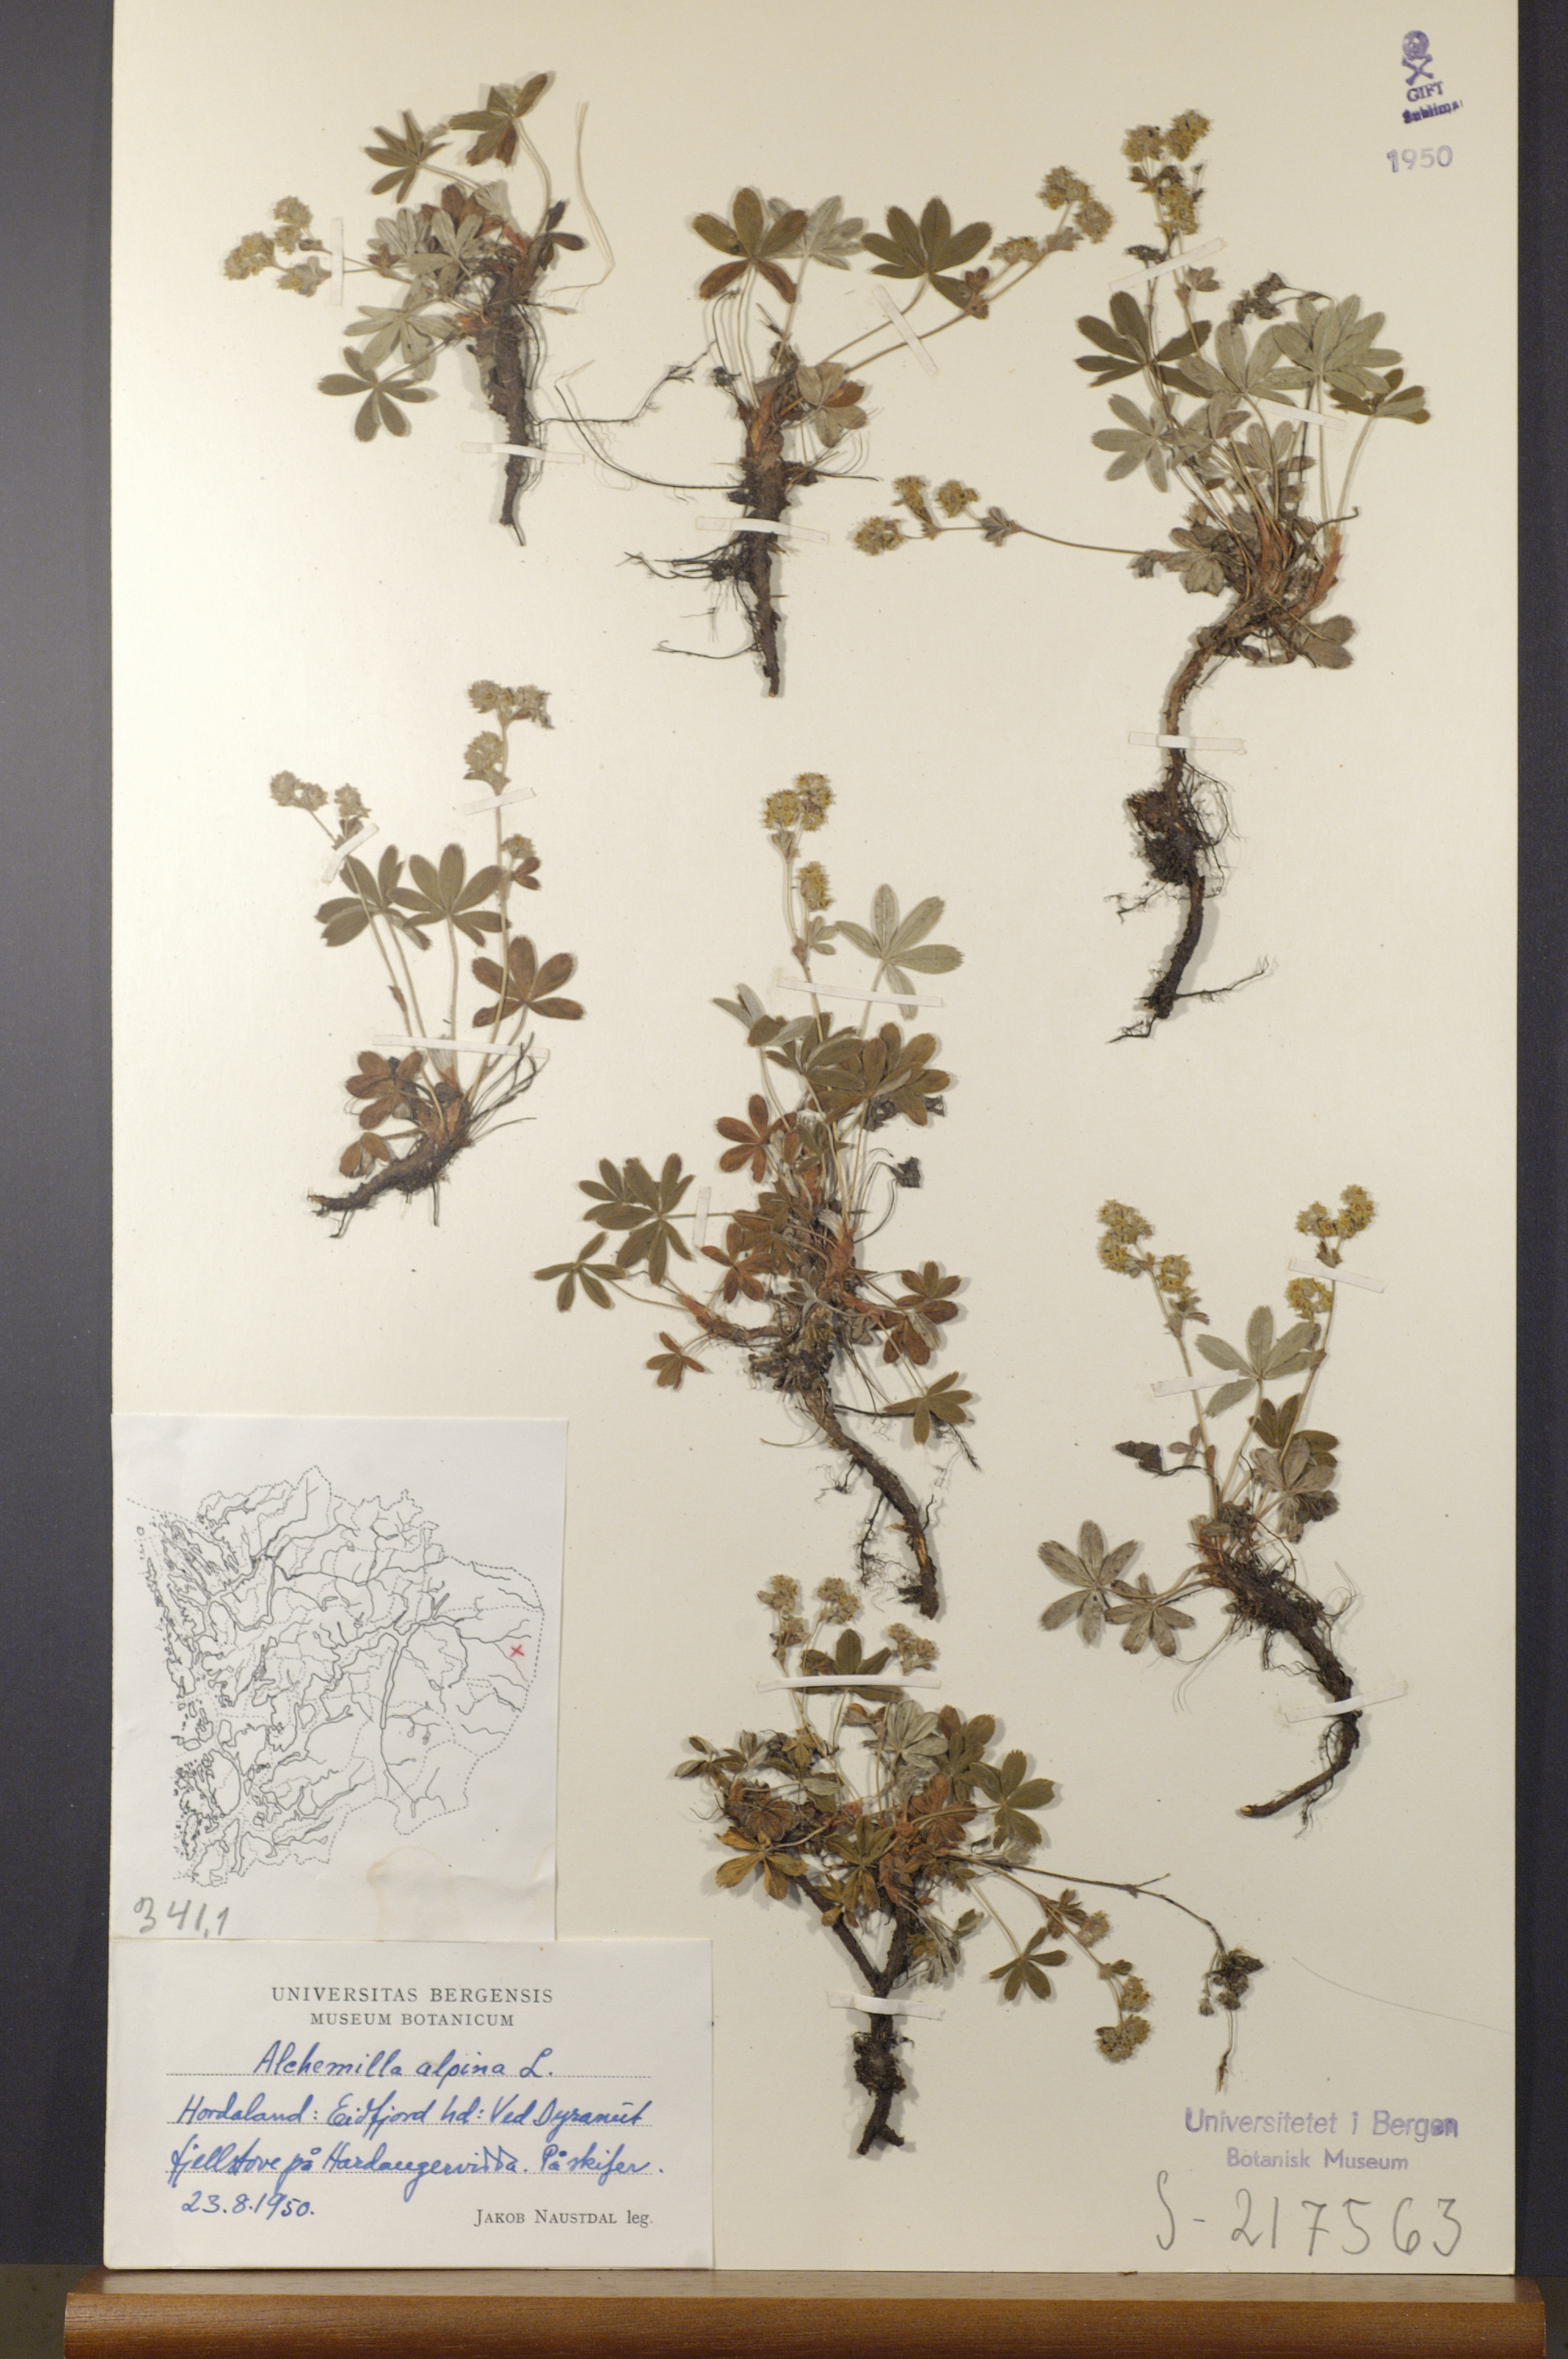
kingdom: Plantae
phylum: Tracheophyta
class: Magnoliopsida
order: Rosales
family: Rosaceae
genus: Alchemilla
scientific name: Alchemilla alpina
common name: Alpine lady's-mantle
